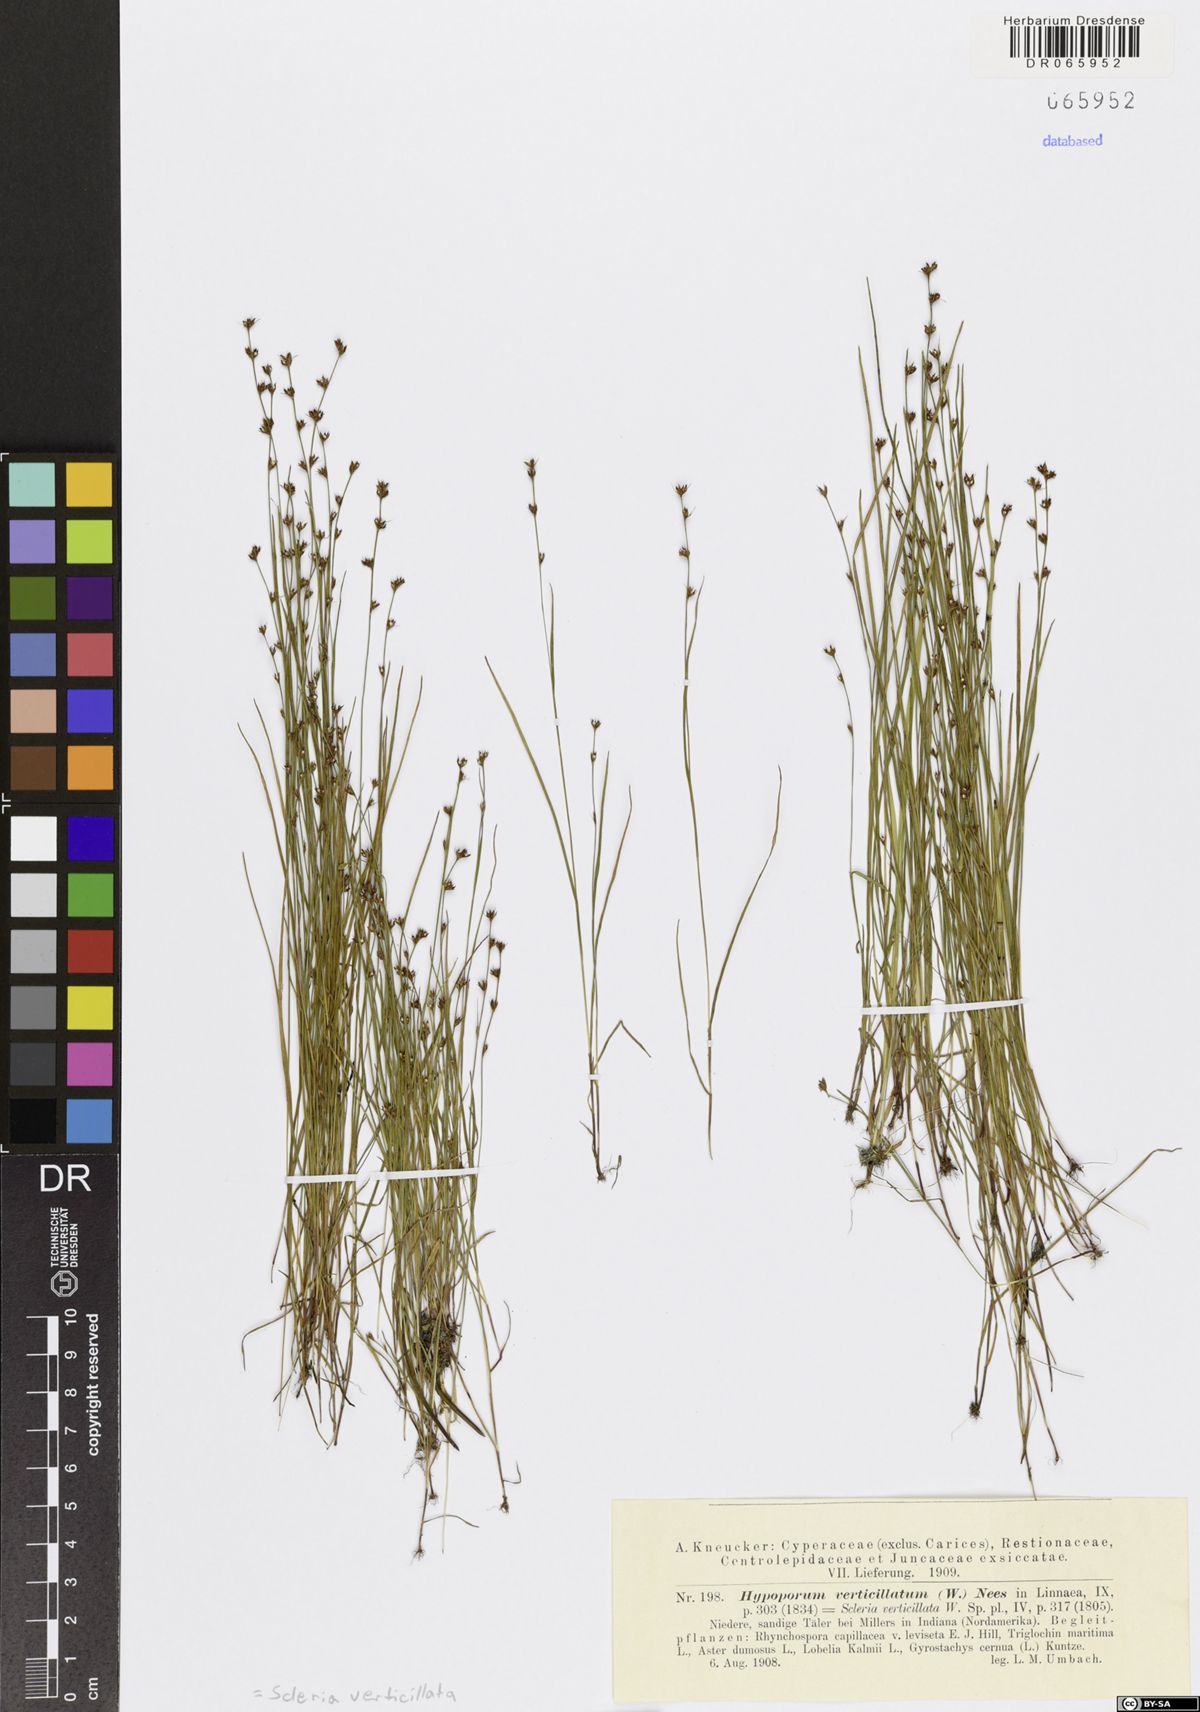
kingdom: Plantae
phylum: Tracheophyta
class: Liliopsida
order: Poales
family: Cyperaceae
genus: Scleria
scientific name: Scleria verticillata
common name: Low nutrush
